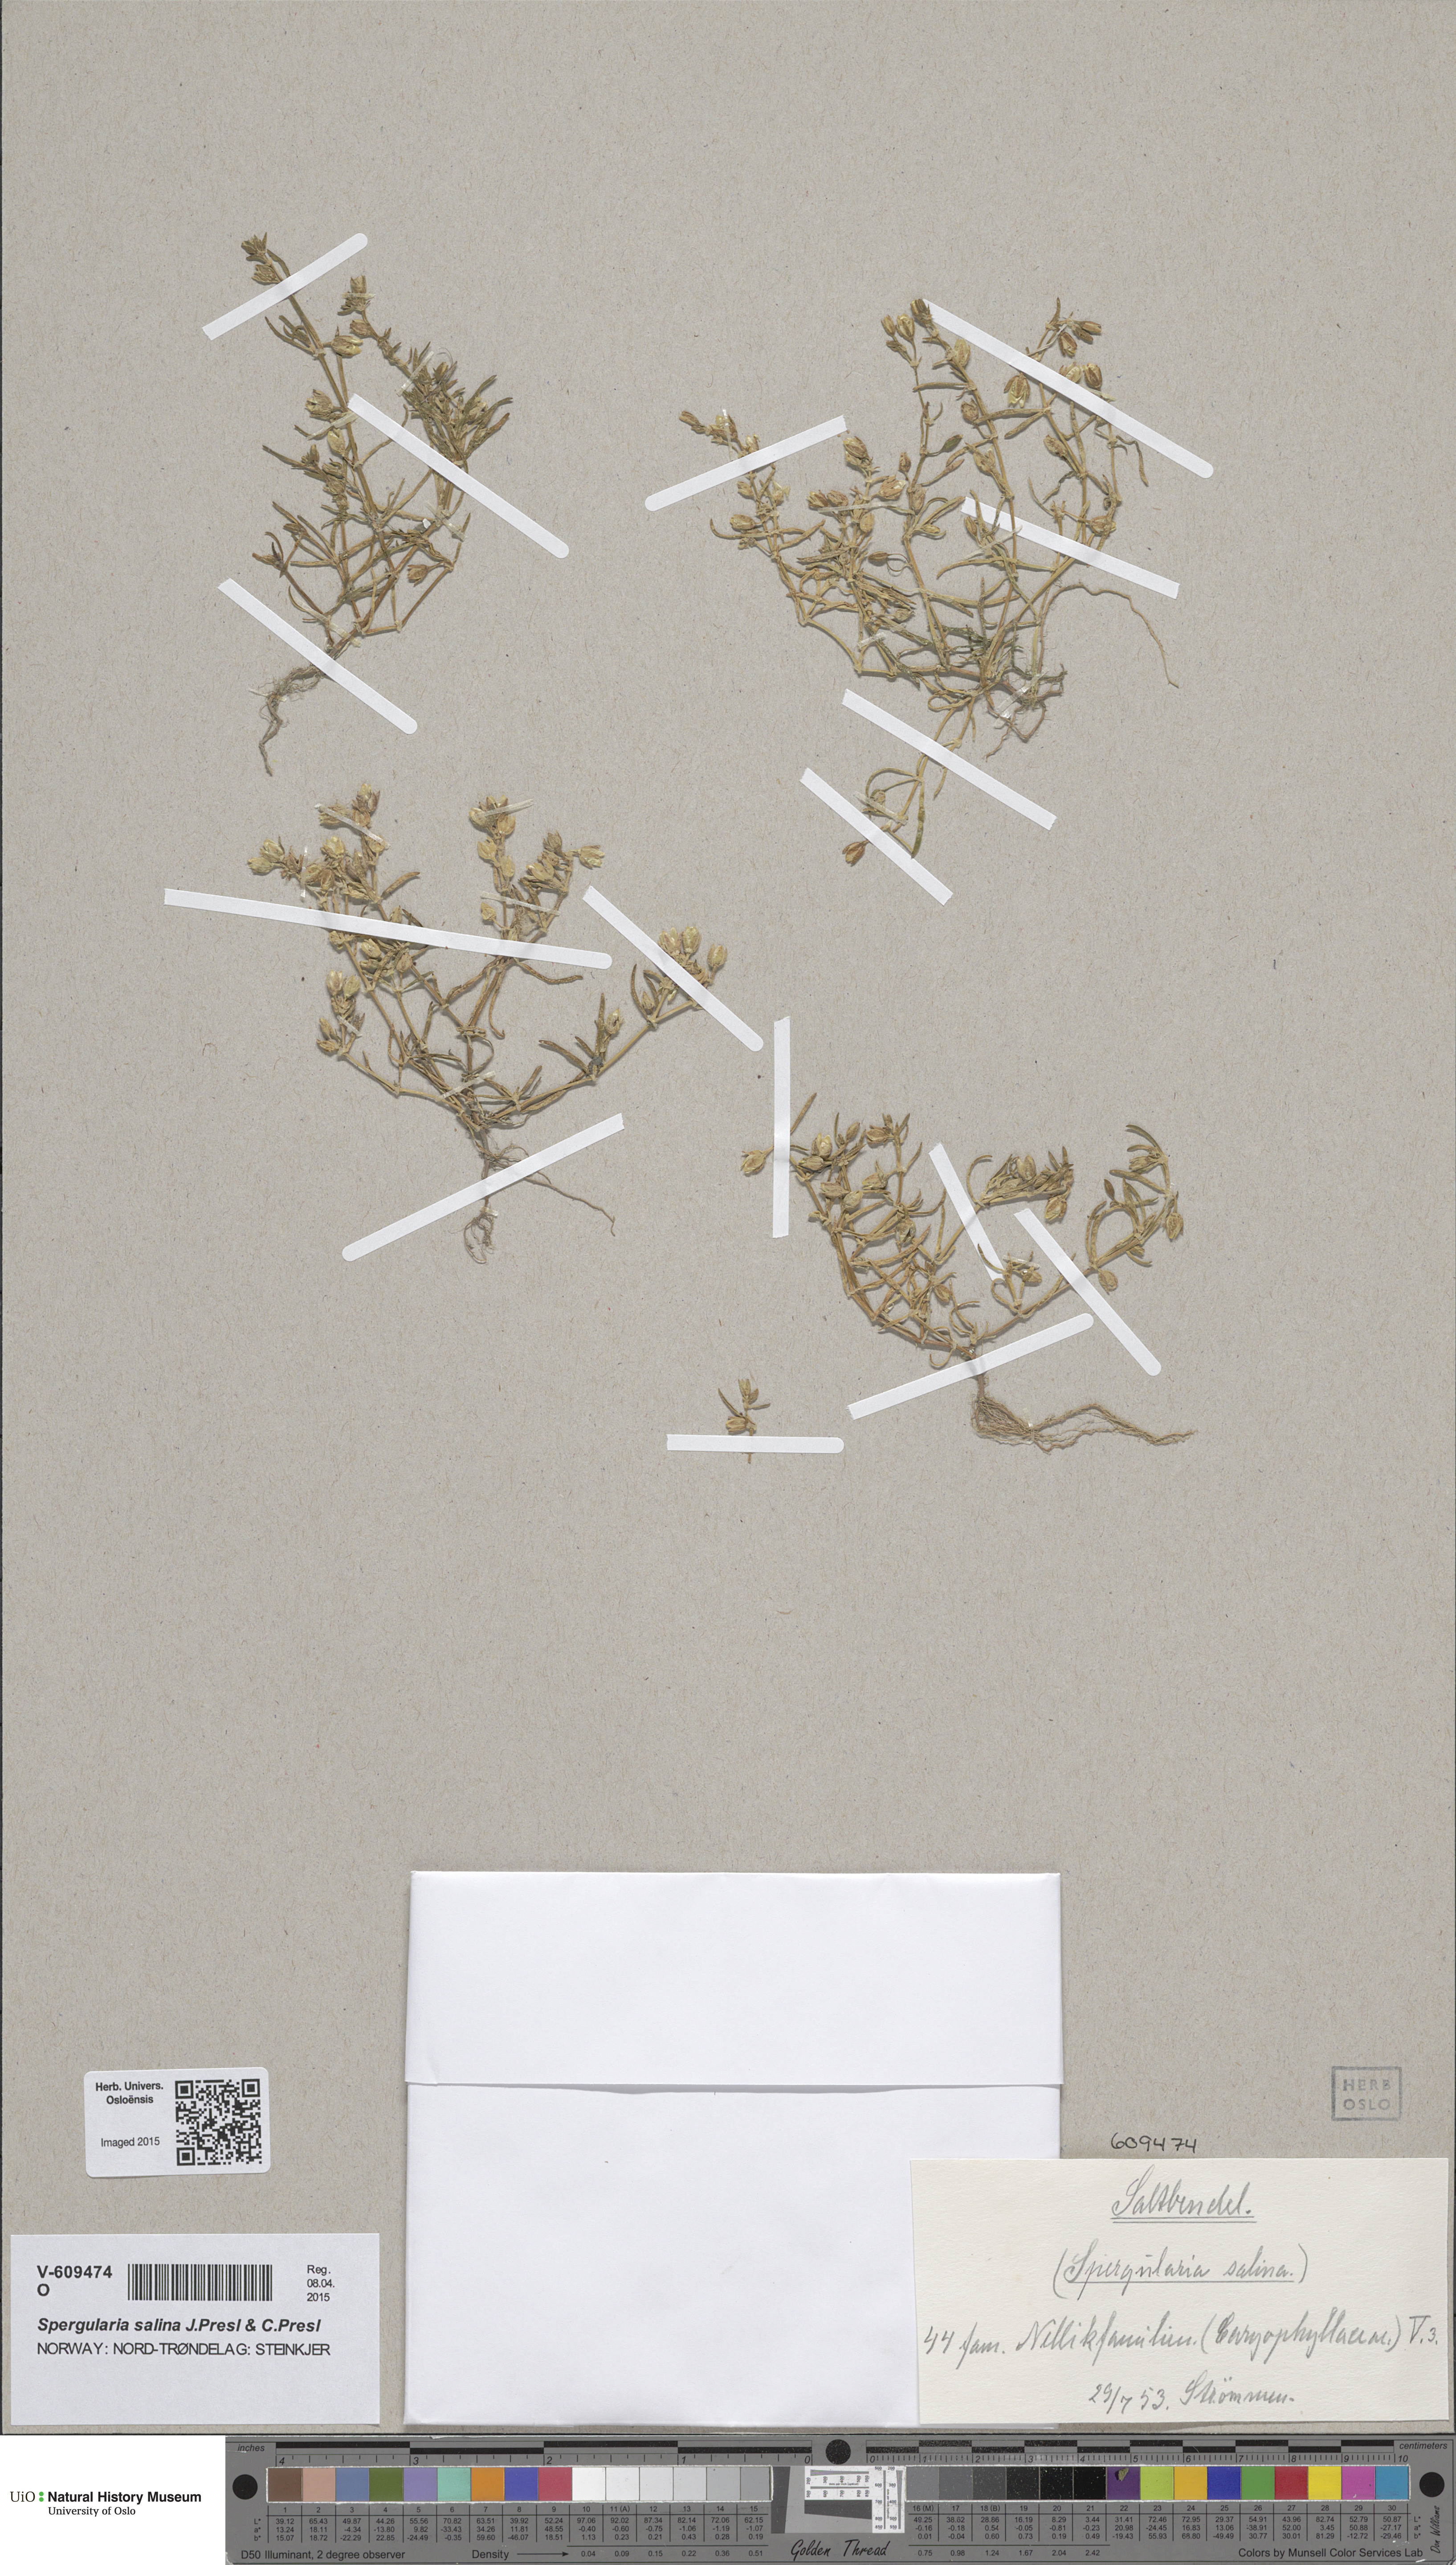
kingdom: Plantae
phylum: Tracheophyta
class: Magnoliopsida
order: Caryophyllales
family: Caryophyllaceae
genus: Spergularia
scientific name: Spergularia marina
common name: Lesser sea-spurrey
